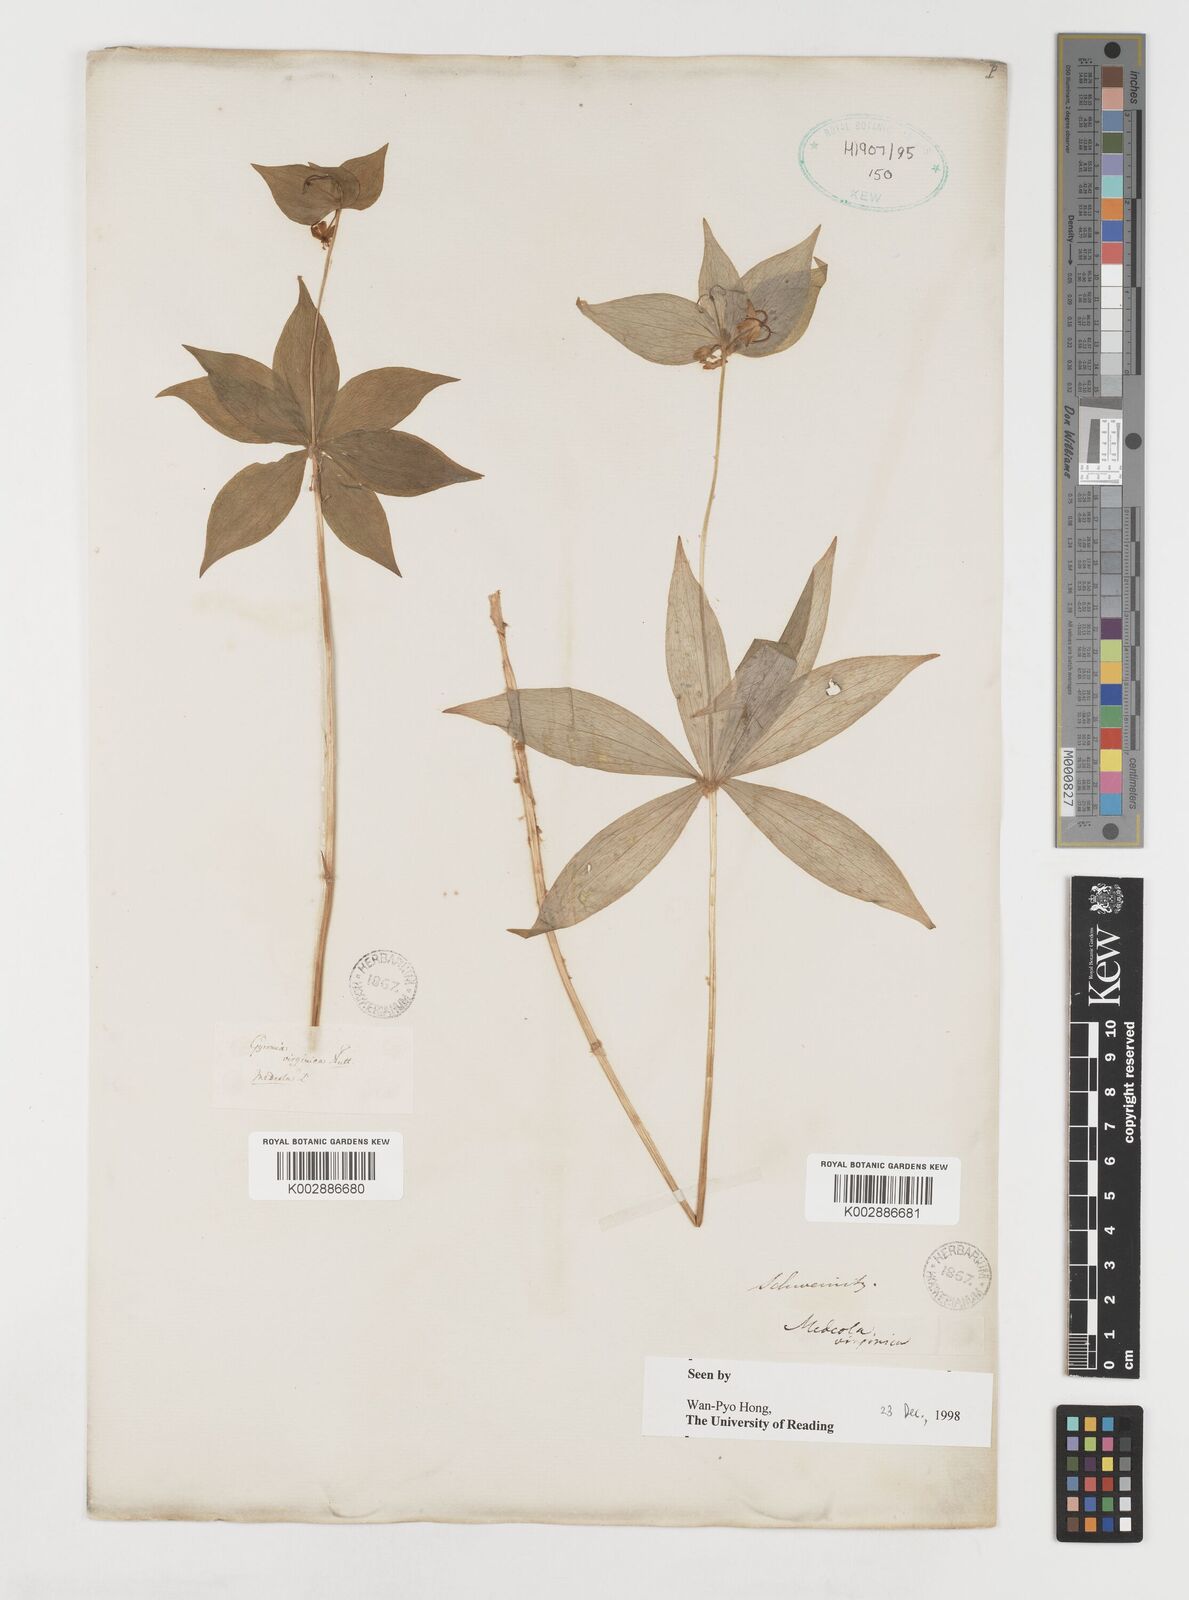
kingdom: Plantae
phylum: Tracheophyta
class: Liliopsida
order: Liliales
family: Liliaceae
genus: Medeola
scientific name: Medeola virginiana
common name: Indian cucumber-root
